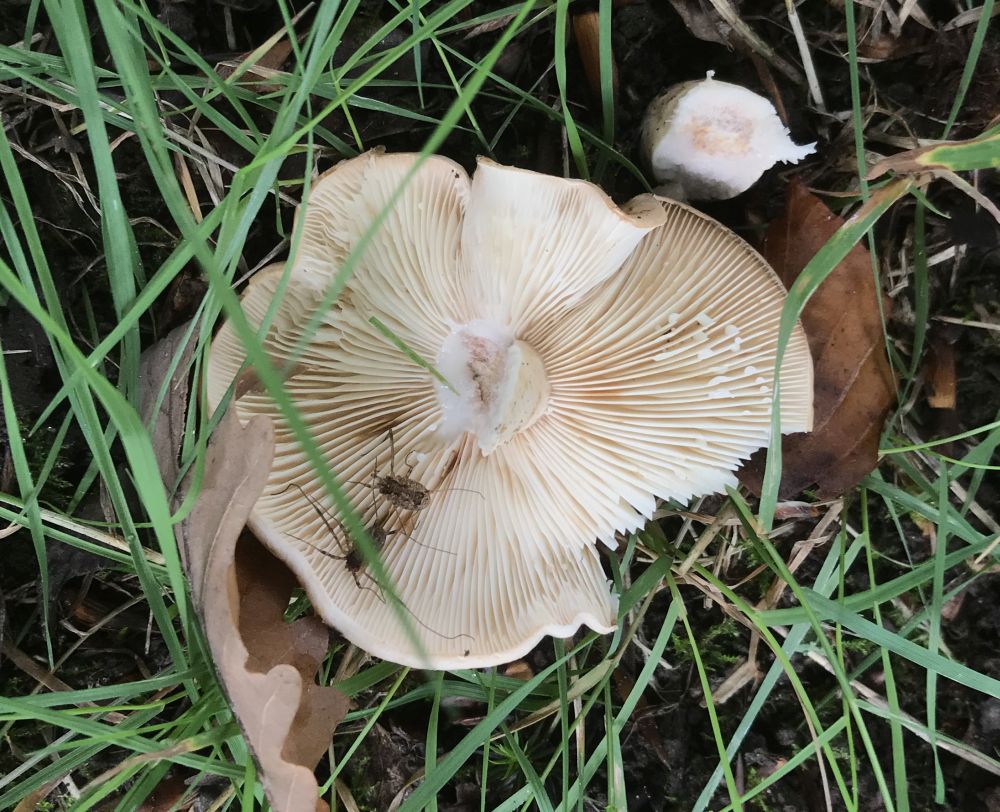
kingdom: Fungi
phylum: Basidiomycota
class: Agaricomycetes
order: Russulales
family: Russulaceae
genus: Lactarius
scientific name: Lactarius pallidus
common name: bleg mælkehat
